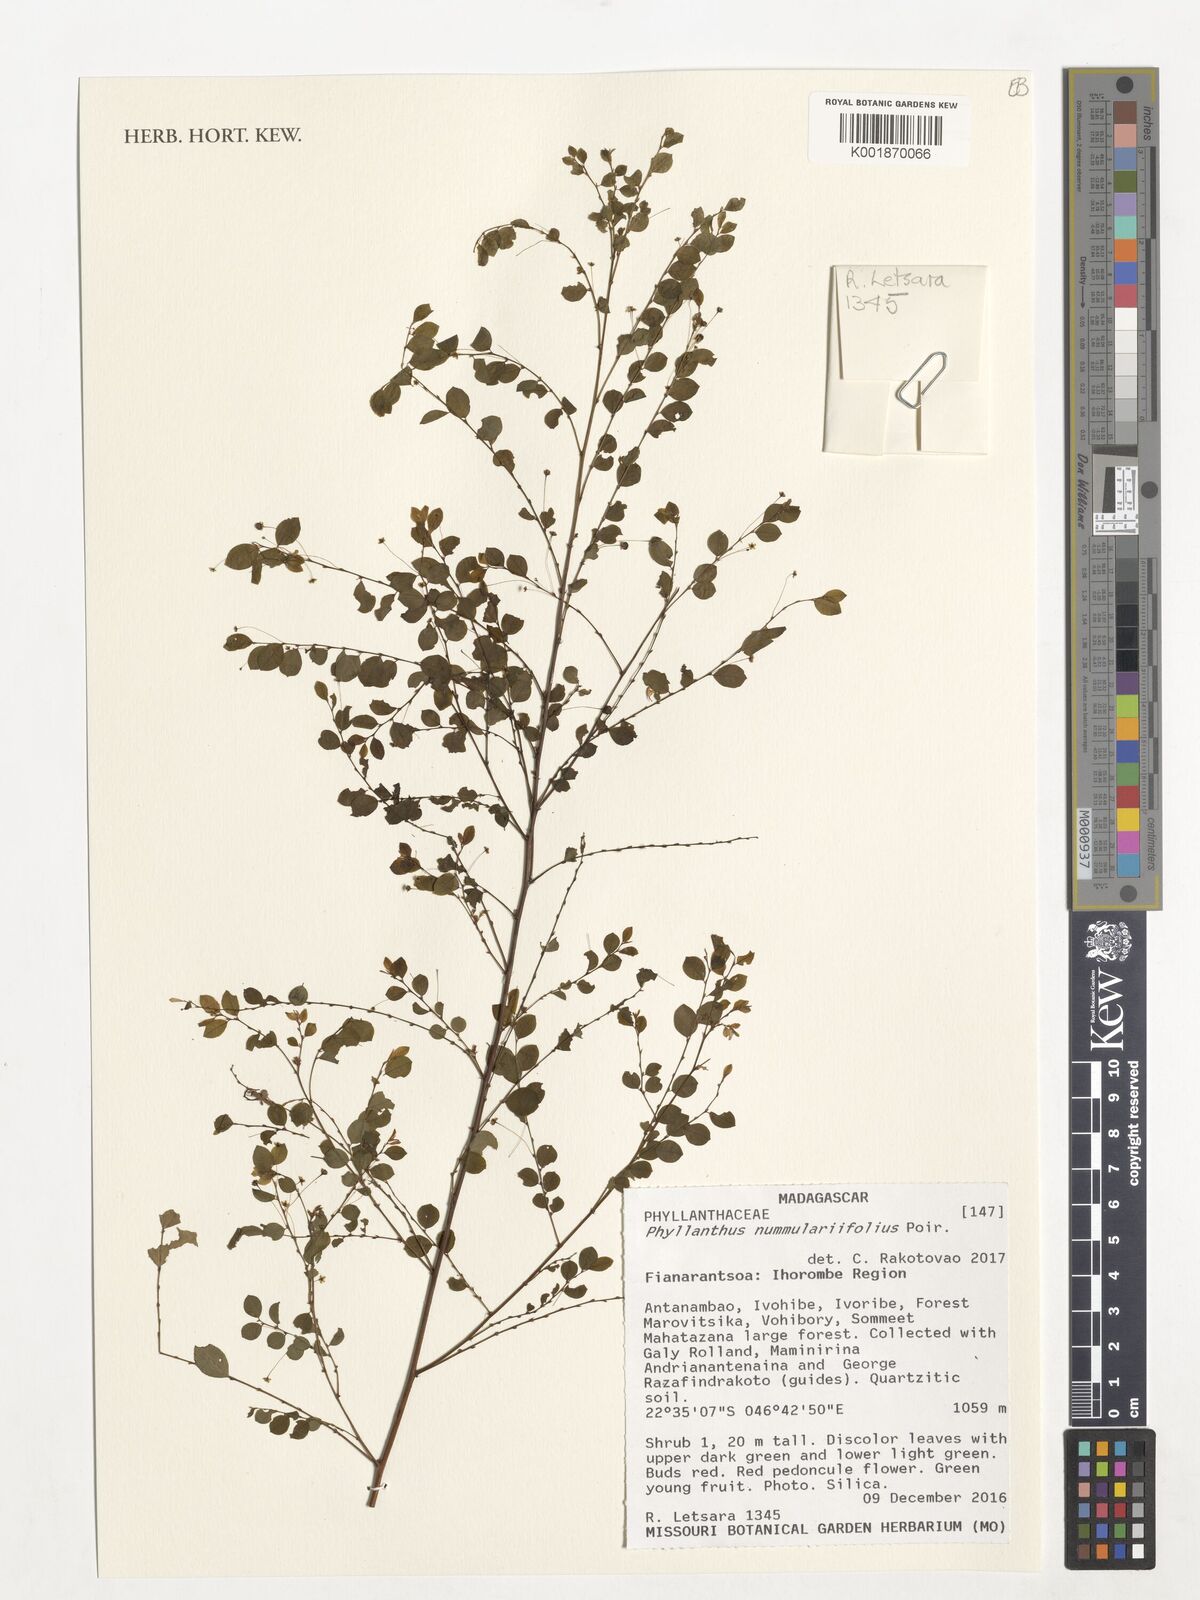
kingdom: Plantae
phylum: Tracheophyta
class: Magnoliopsida
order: Malpighiales
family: Phyllanthaceae
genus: Phyllanthus
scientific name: Phyllanthus nummulariifolius
